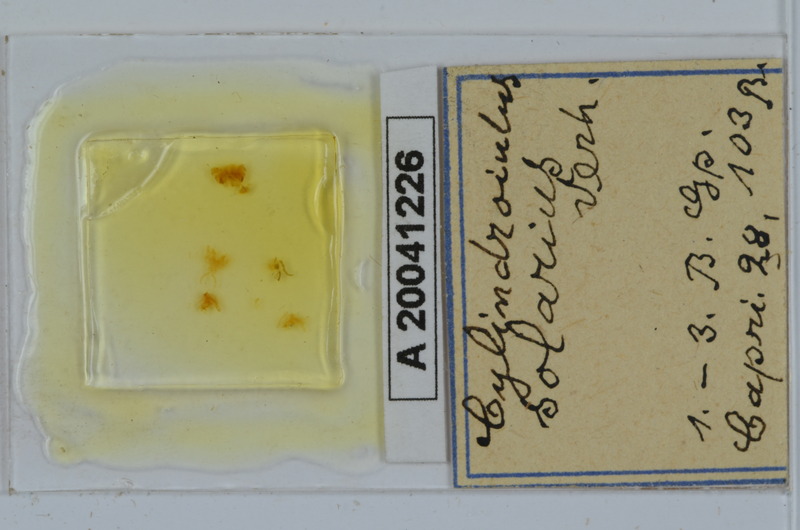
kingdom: Animalia
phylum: Arthropoda
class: Diplopoda
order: Julida
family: Julidae
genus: Cylindroiulus
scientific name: Cylindroiulus solarius
